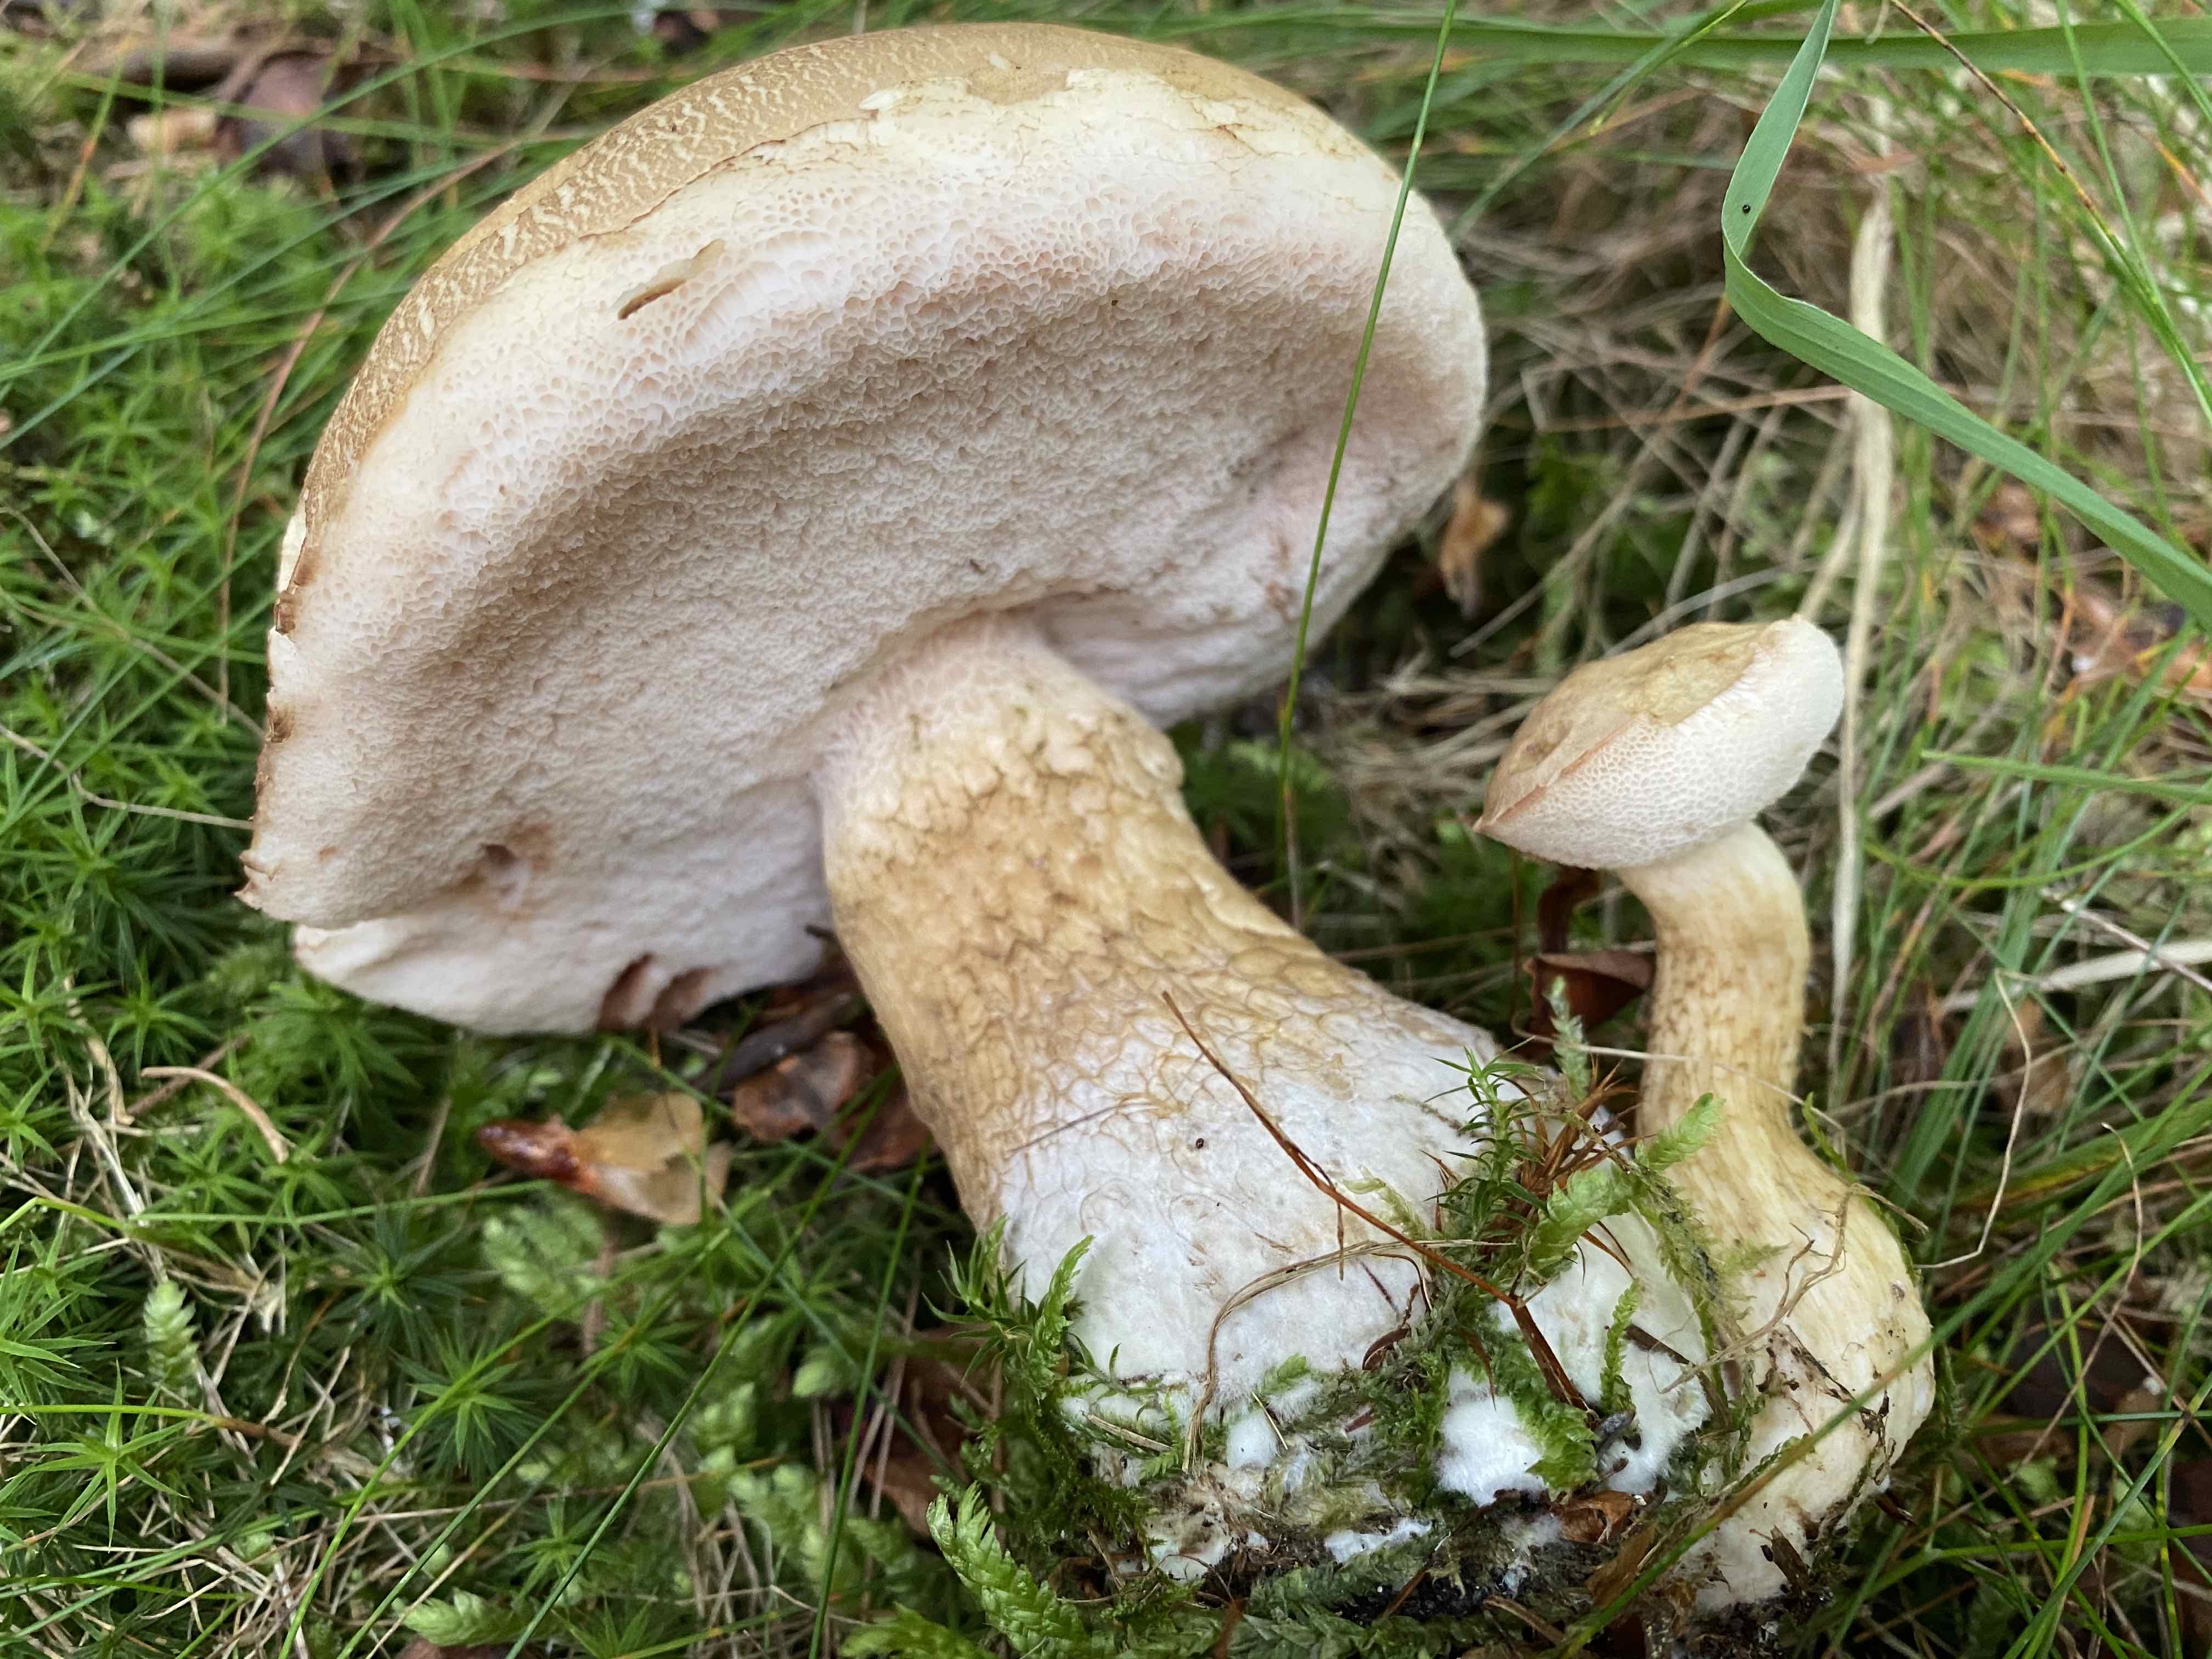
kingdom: Fungi
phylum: Basidiomycota
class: Agaricomycetes
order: Boletales
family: Boletaceae
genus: Tylopilus
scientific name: Tylopilus felleus
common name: galderørhat
